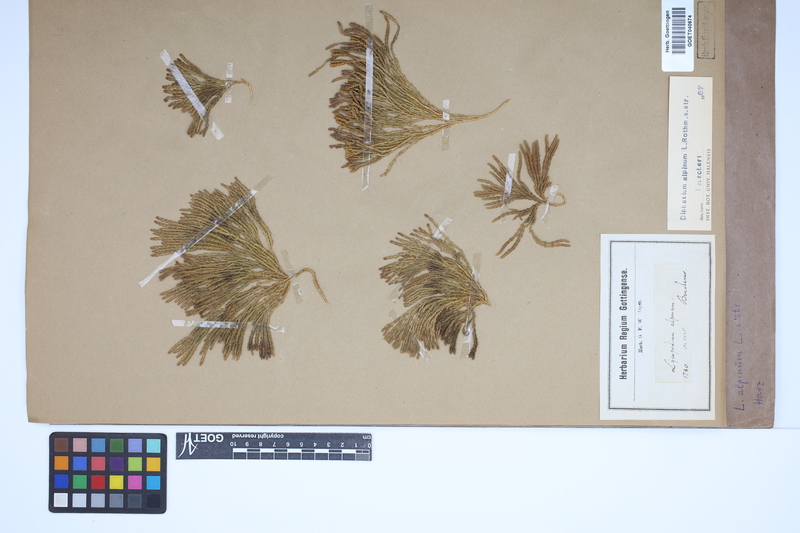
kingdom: Plantae
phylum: Tracheophyta
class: Lycopodiopsida
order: Lycopodiales
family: Lycopodiaceae
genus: Diphasiastrum
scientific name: Diphasiastrum alpinum
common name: Alpine clubmoss
